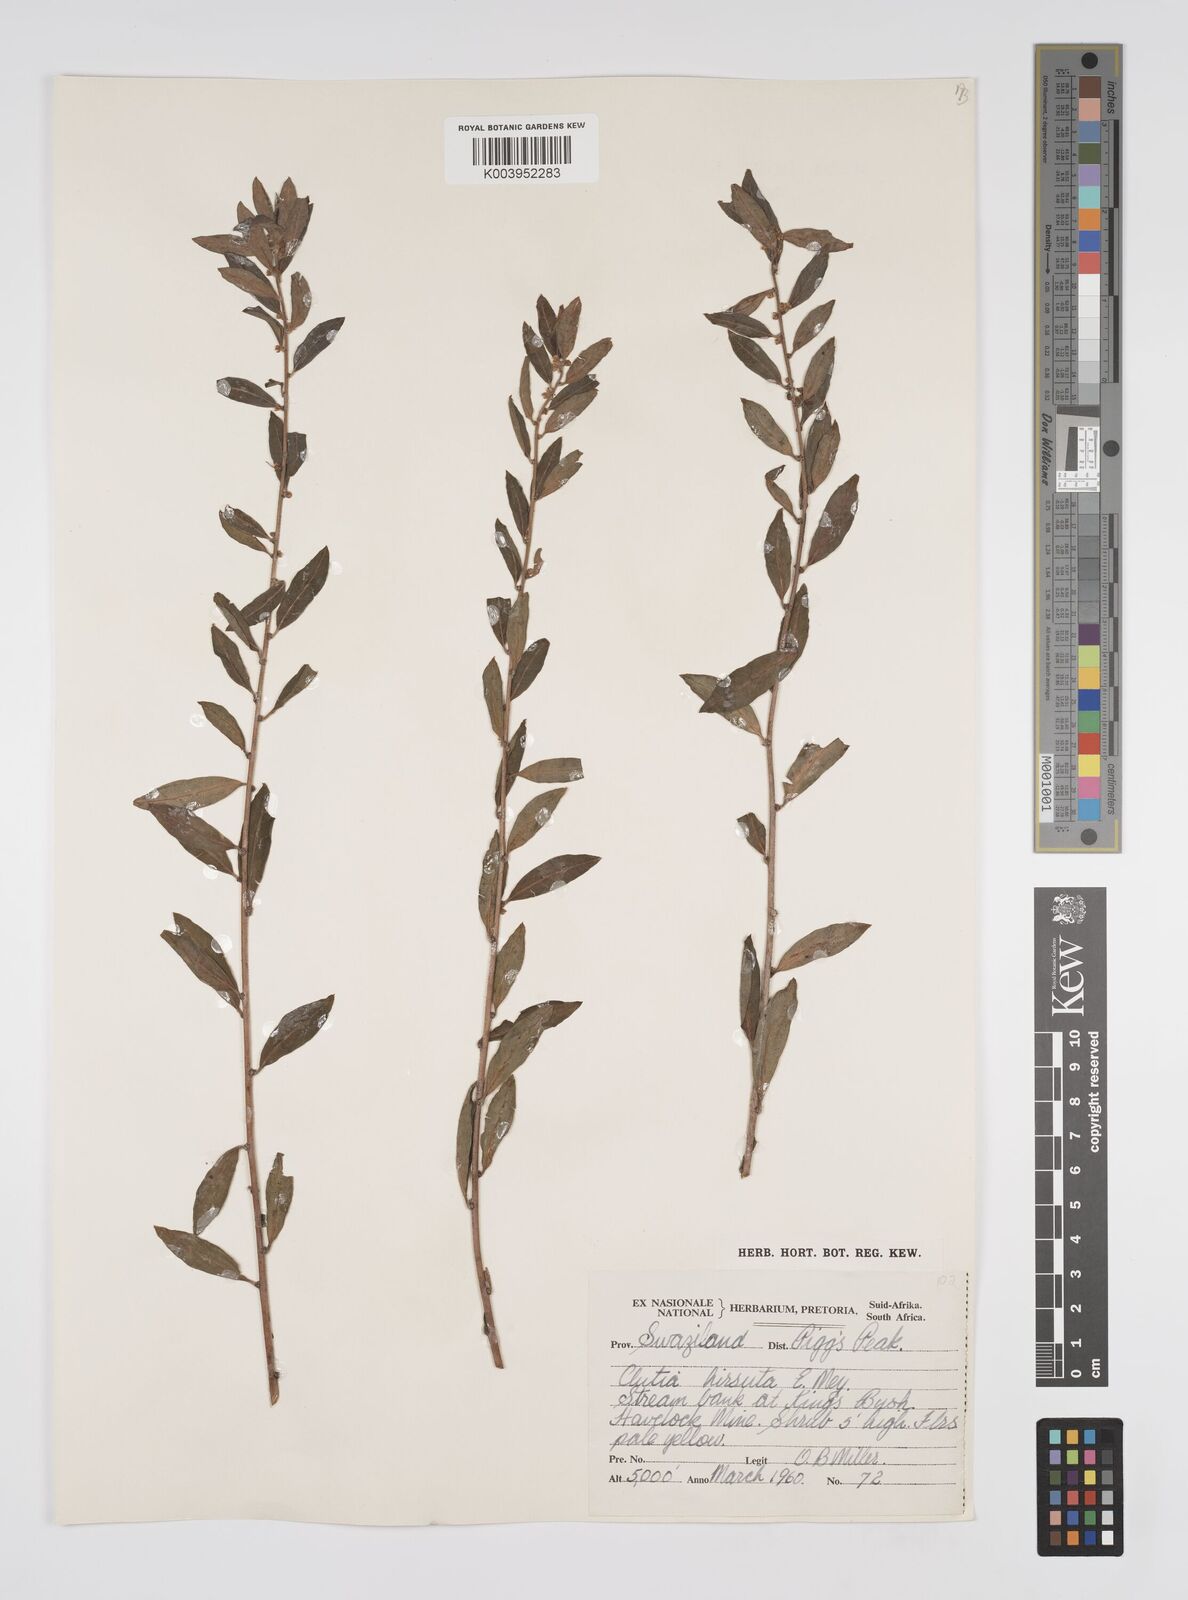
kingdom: Plantae
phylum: Tracheophyta
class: Magnoliopsida
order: Malpighiales
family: Peraceae
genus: Clutia
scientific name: Clutia affinis
